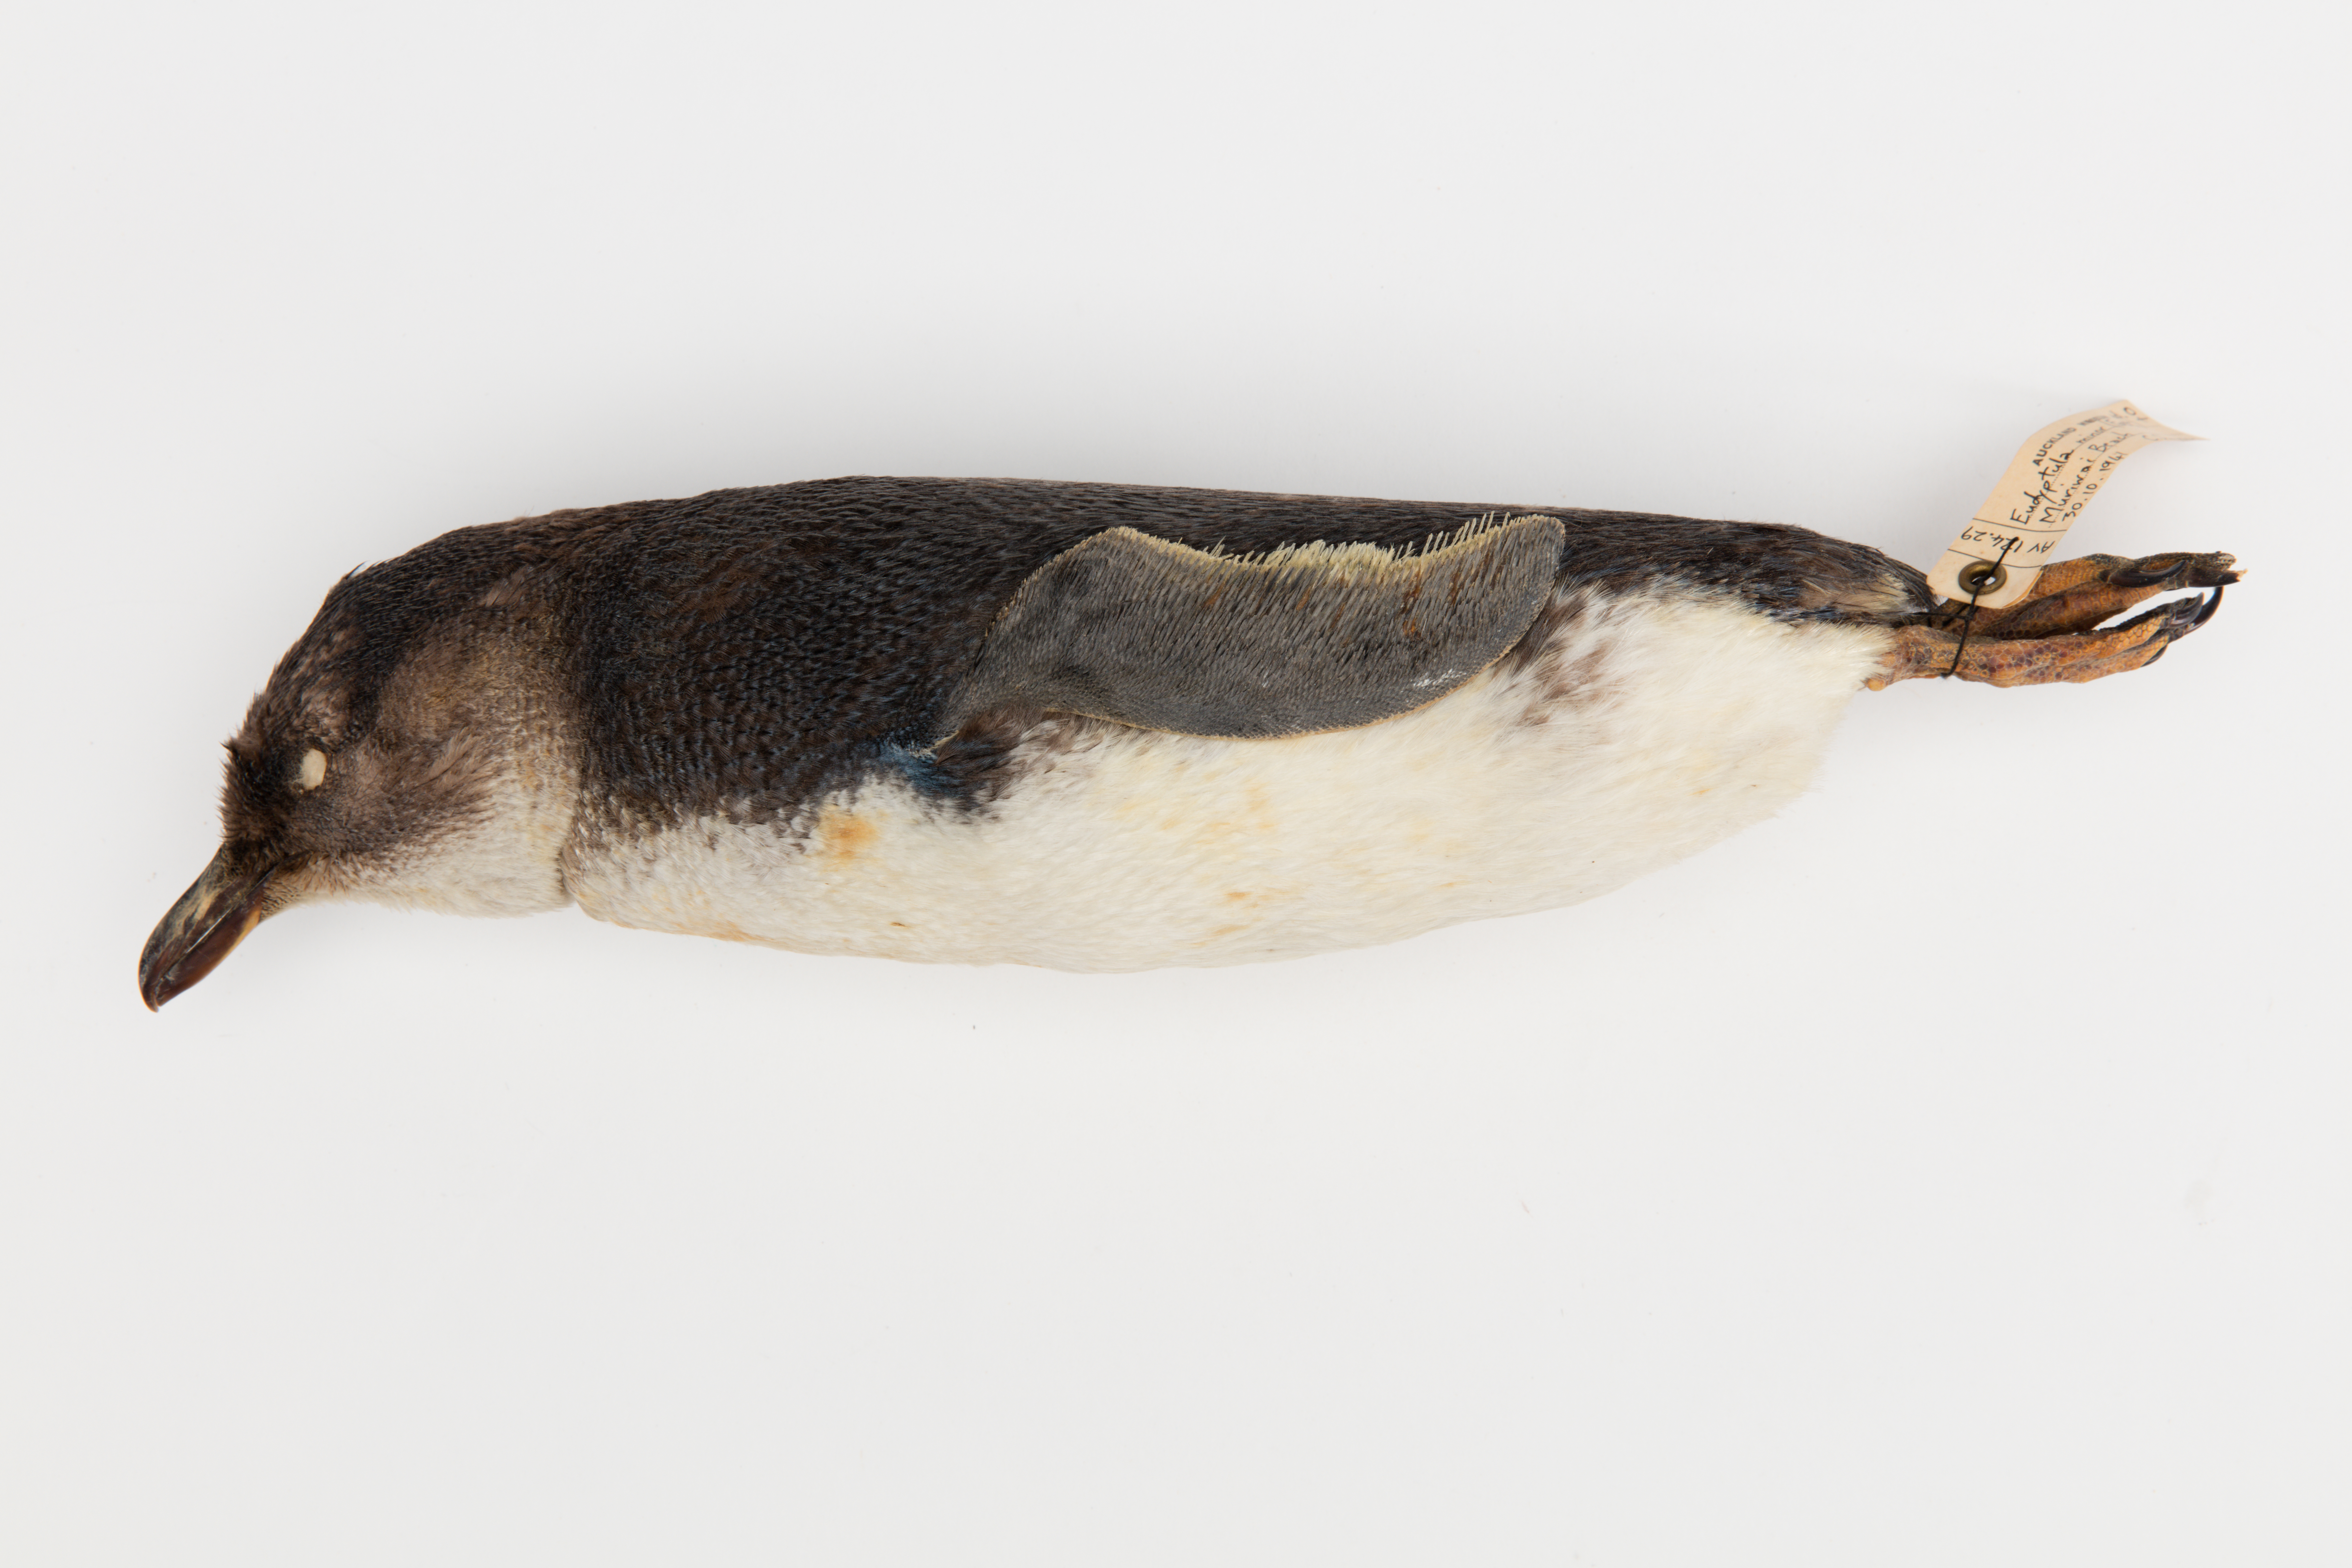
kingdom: Animalia
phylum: Chordata
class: Aves
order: Sphenisciformes
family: Spheniscidae
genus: Eudyptula
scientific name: Eudyptula minor
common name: Little penguin
